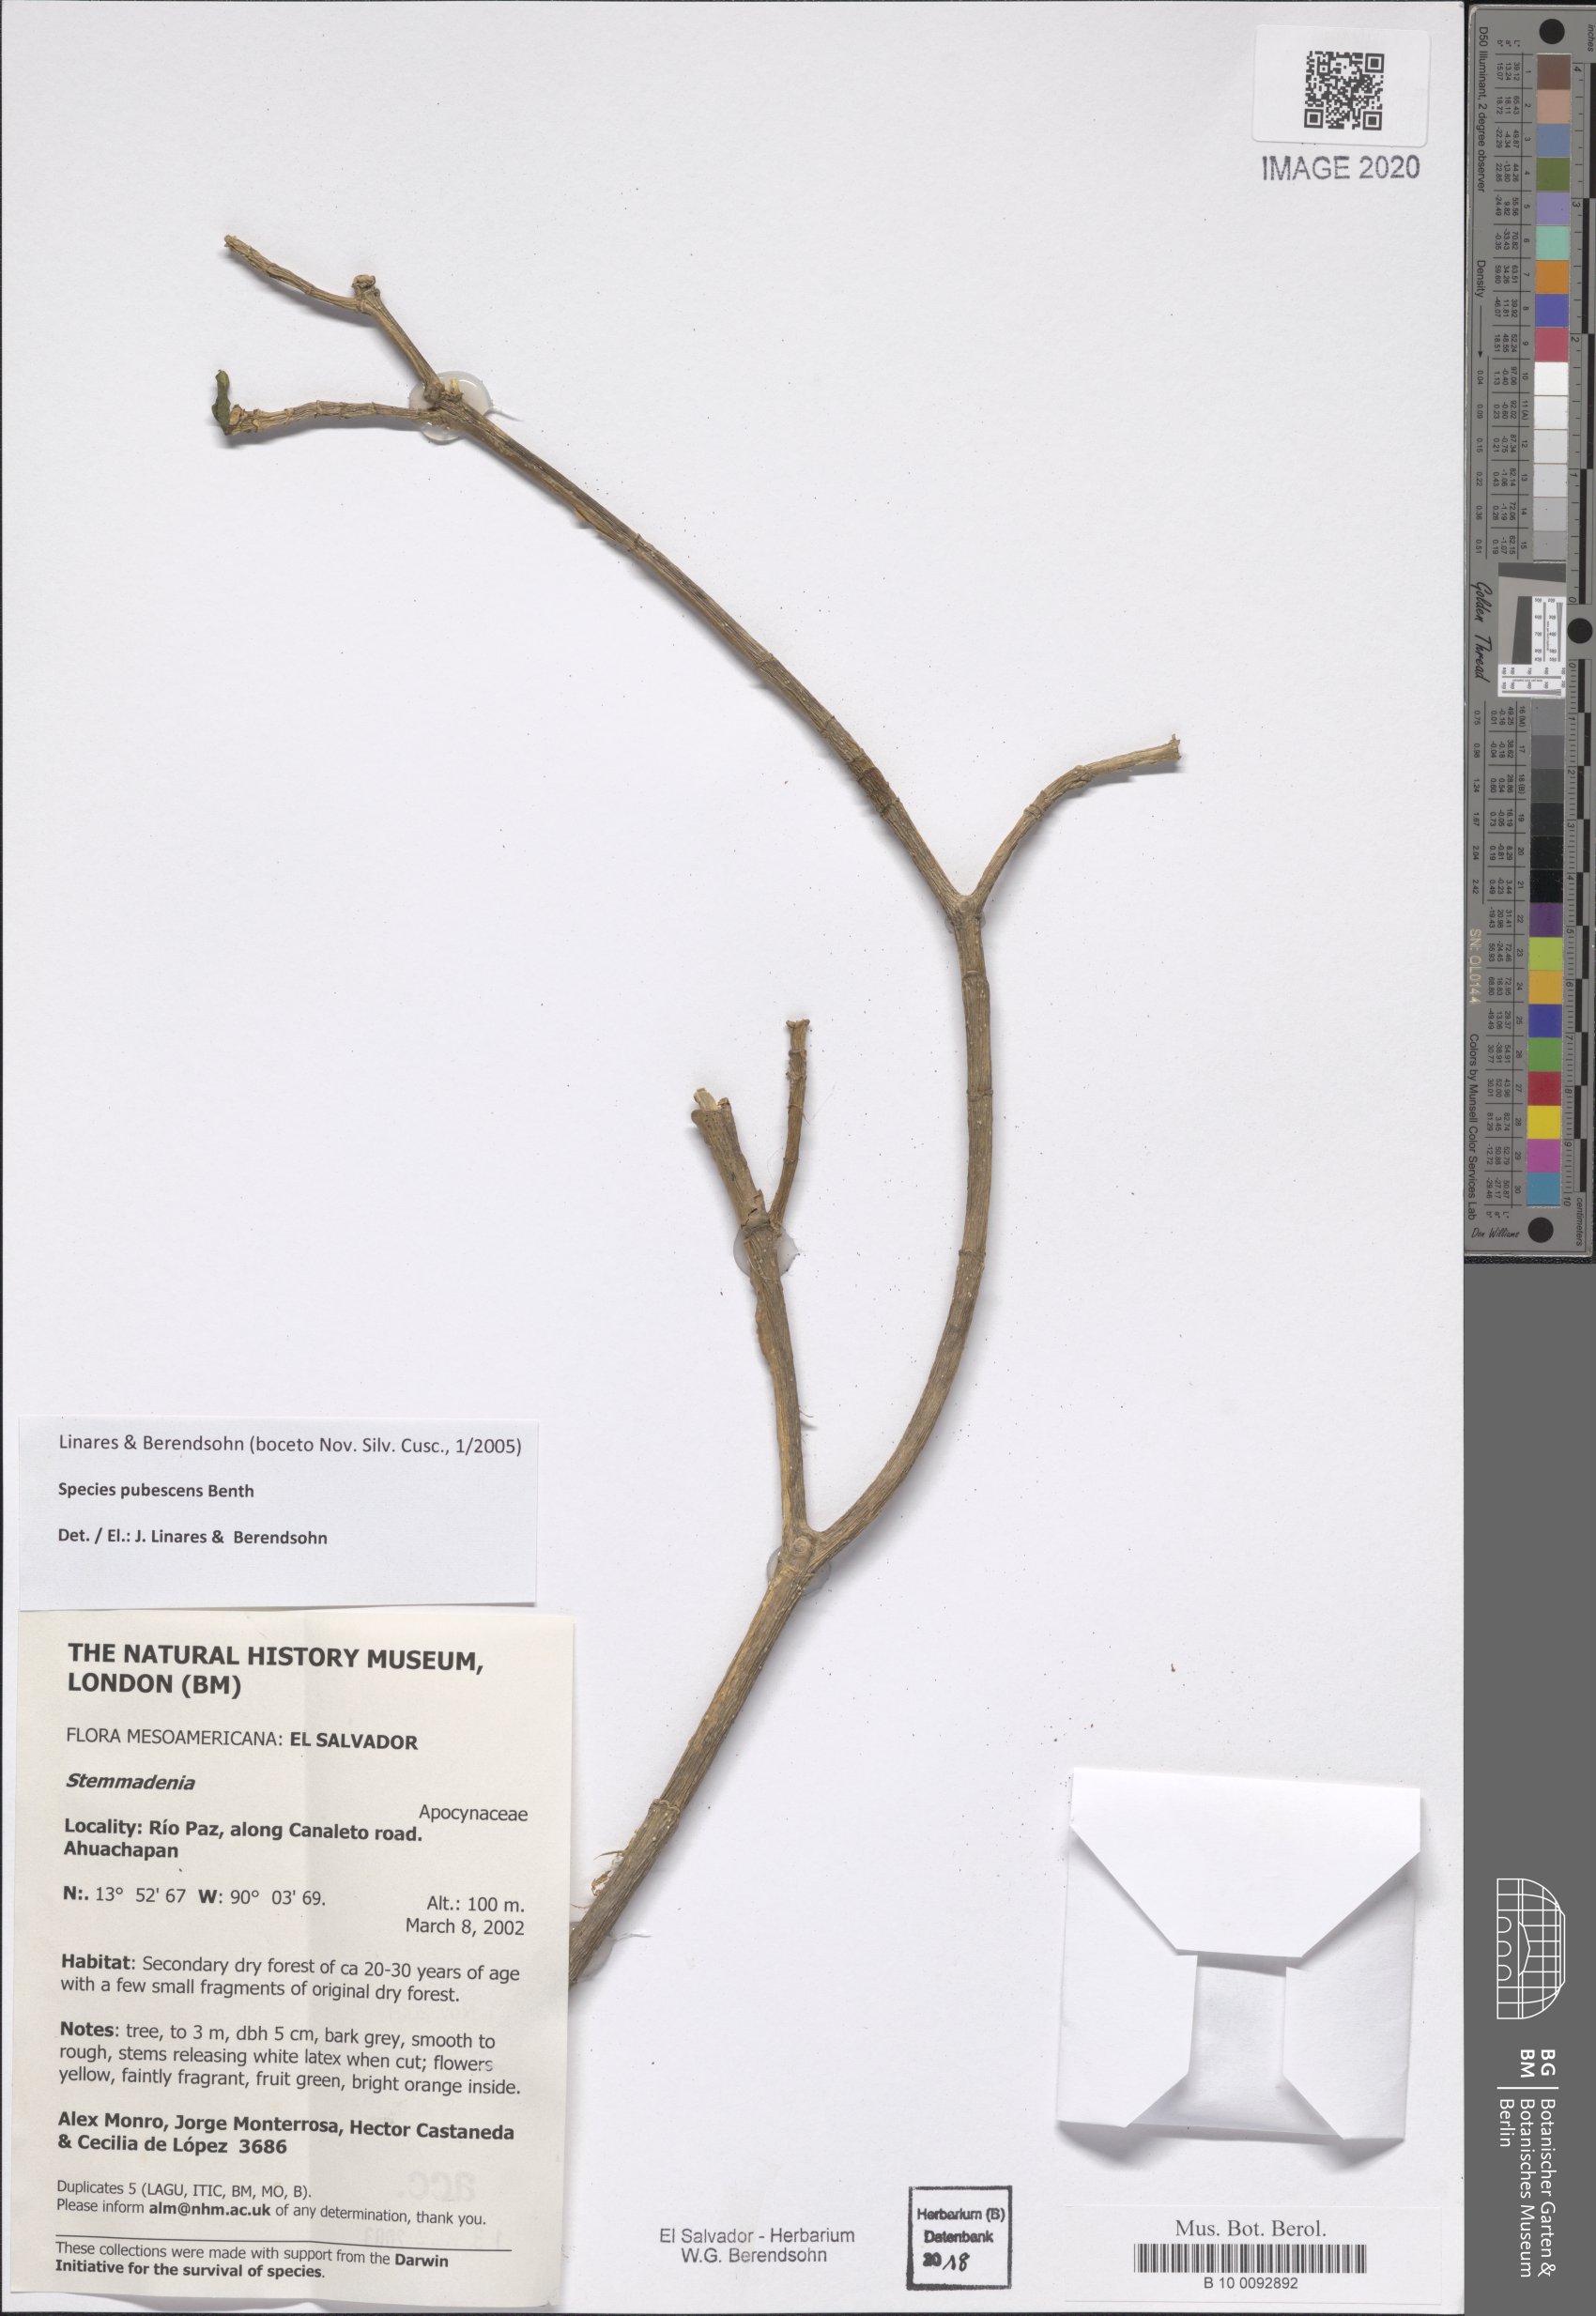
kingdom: Plantae
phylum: Tracheophyta
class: Magnoliopsida
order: Gentianales
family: Apocynaceae
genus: Tabernaemontana
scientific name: Tabernaemontana glabra
